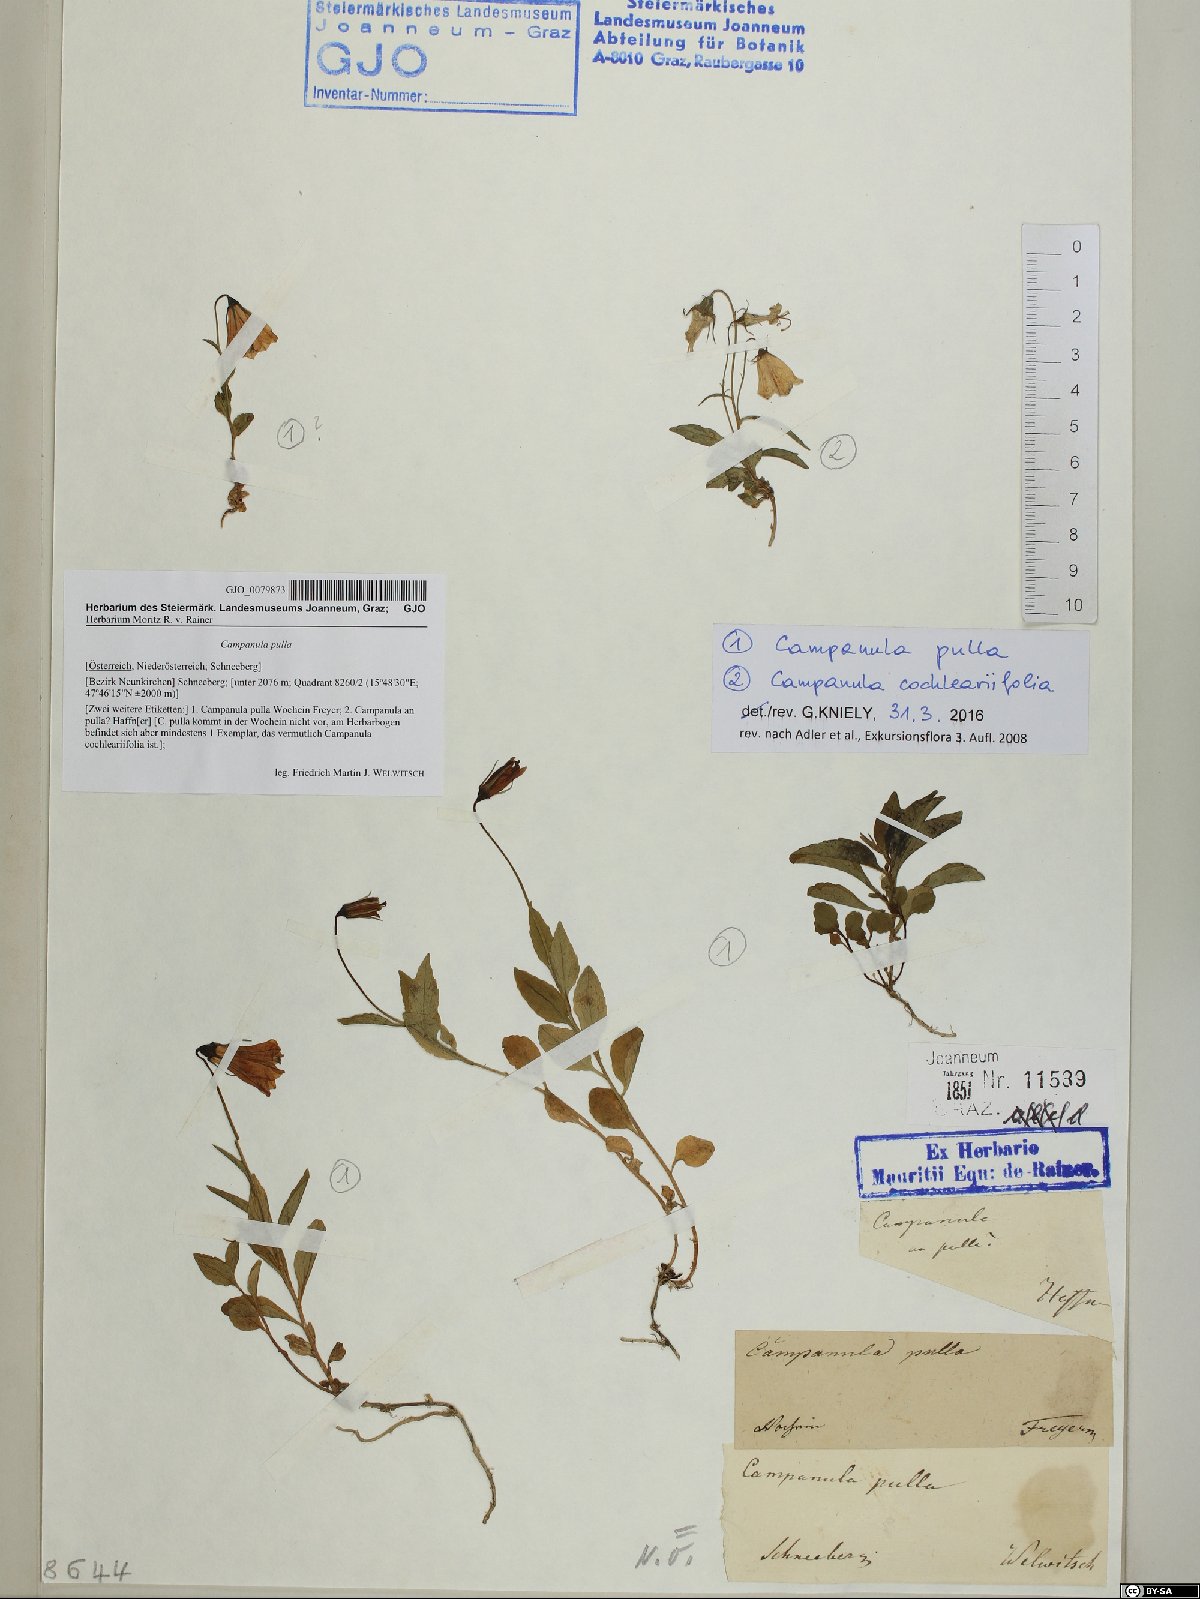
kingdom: Plantae
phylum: Tracheophyta
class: Magnoliopsida
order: Asterales
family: Campanulaceae
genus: Campanula
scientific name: Campanula pulla
